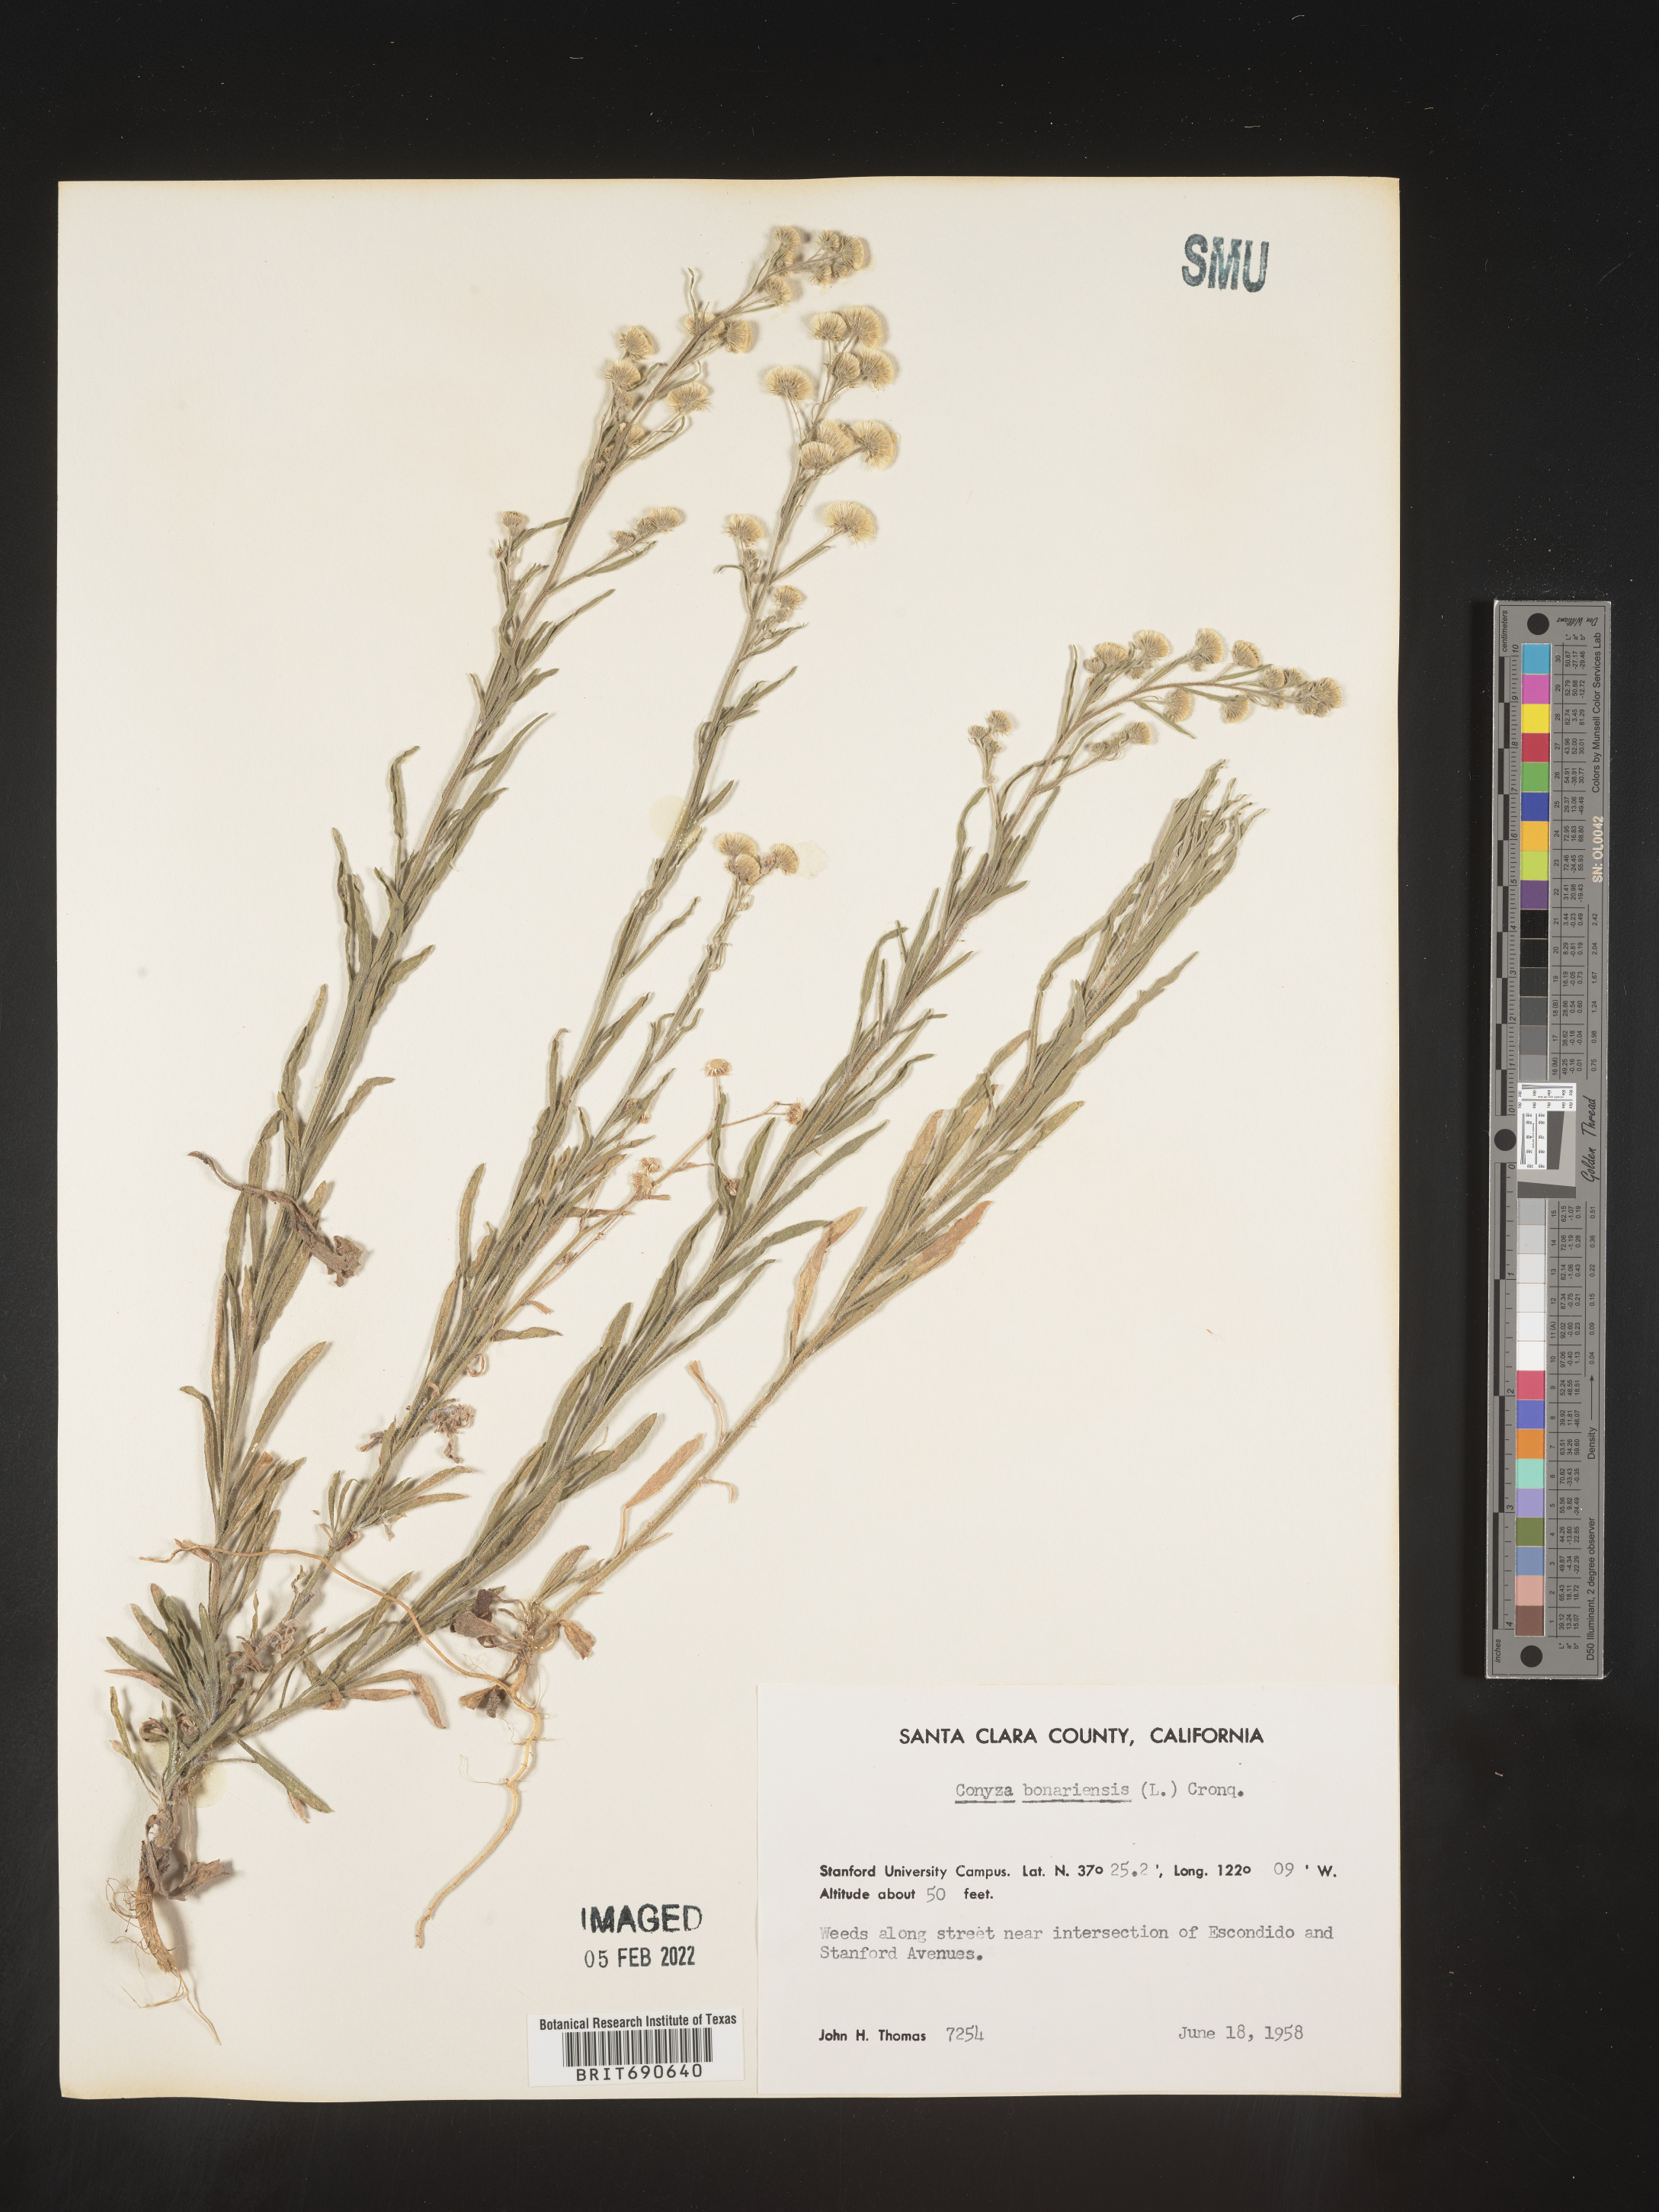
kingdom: Plantae
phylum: Tracheophyta
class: Magnoliopsida
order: Asterales
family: Asteraceae
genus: Erigeron
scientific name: Erigeron bonariensis
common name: Argentine fleabane
